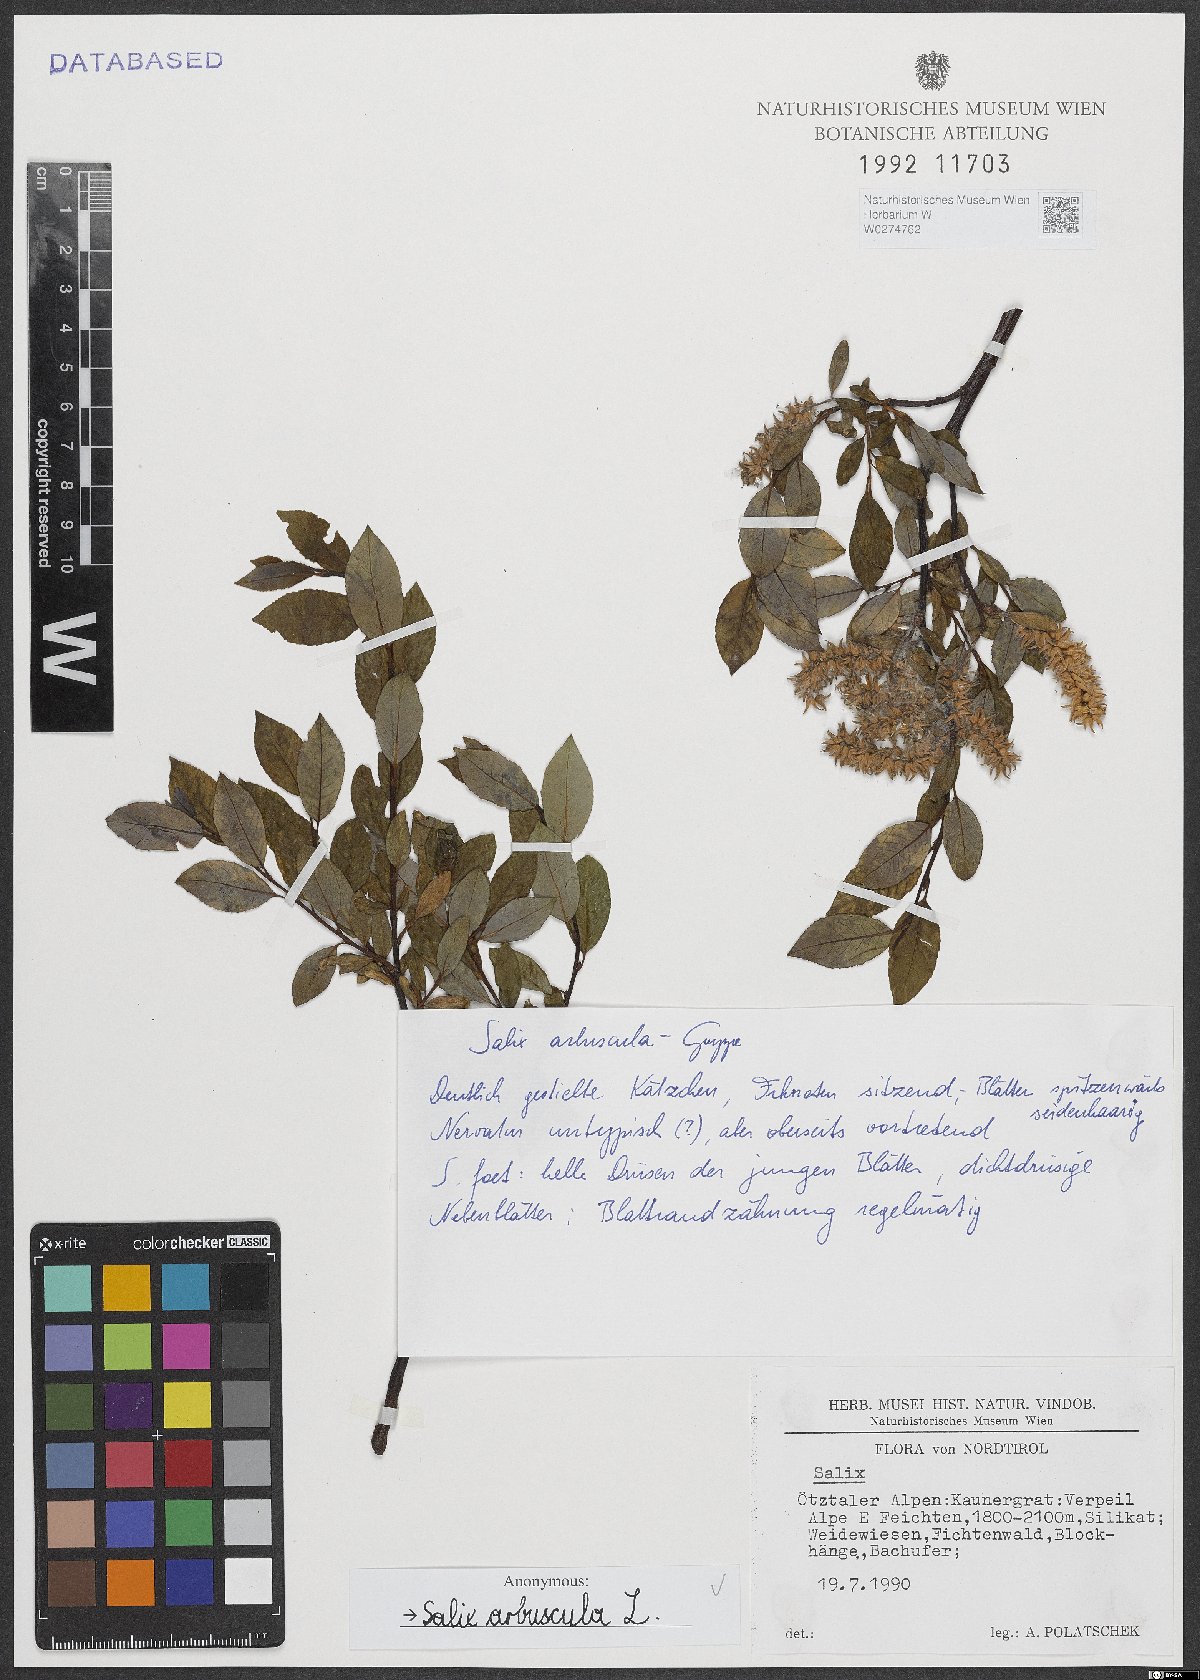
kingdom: Plantae
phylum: Tracheophyta
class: Magnoliopsida
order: Malpighiales
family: Salicaceae
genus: Salix
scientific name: Salix arbuscula
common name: Mountain willow
